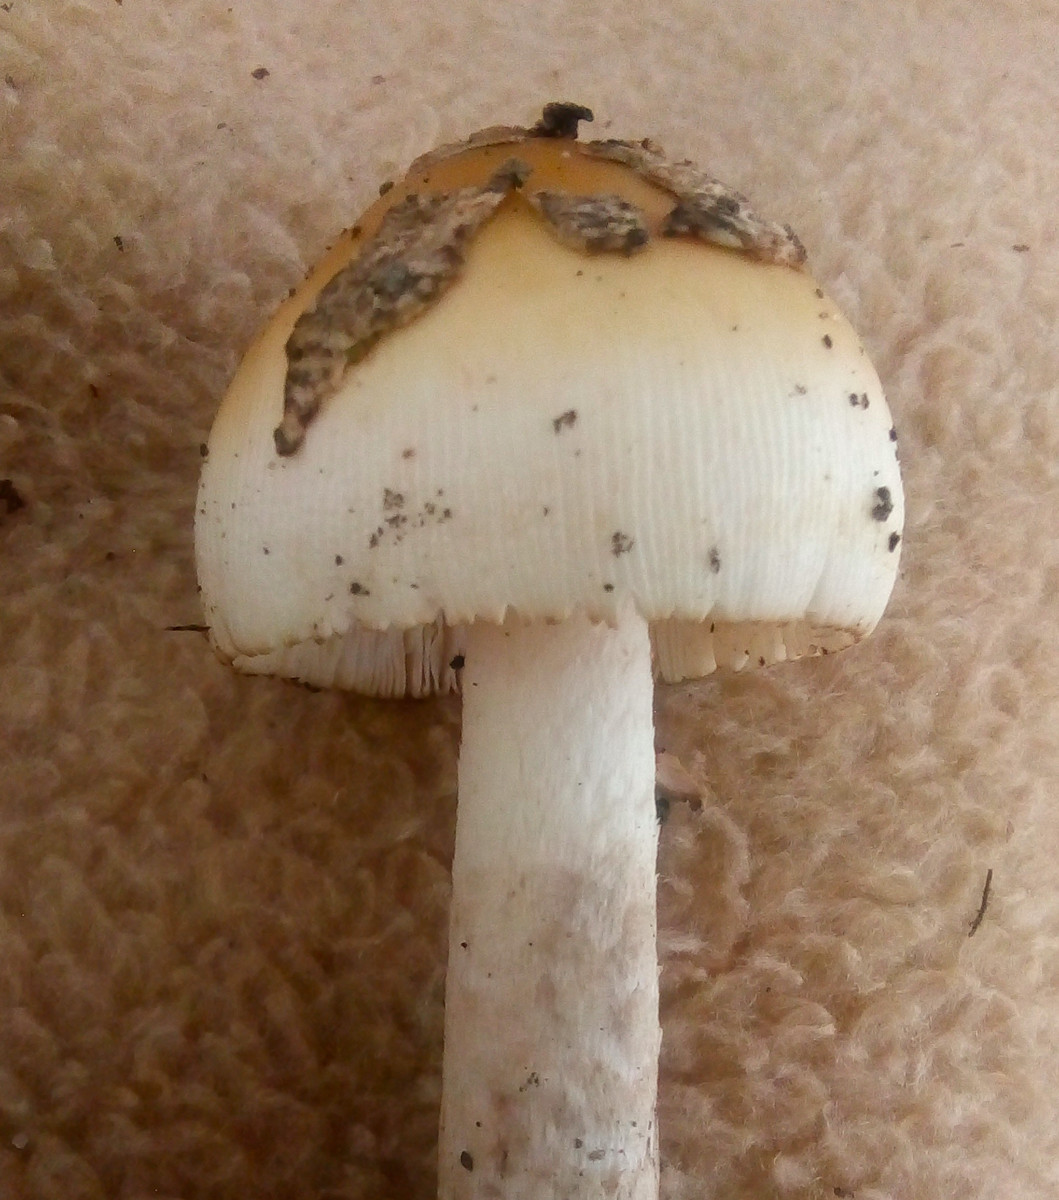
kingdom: Fungi
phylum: Basidiomycota
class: Agaricomycetes
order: Agaricales
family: Amanitaceae
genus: Amanita
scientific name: Amanita ceciliae
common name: stor kam-fluesvamp
